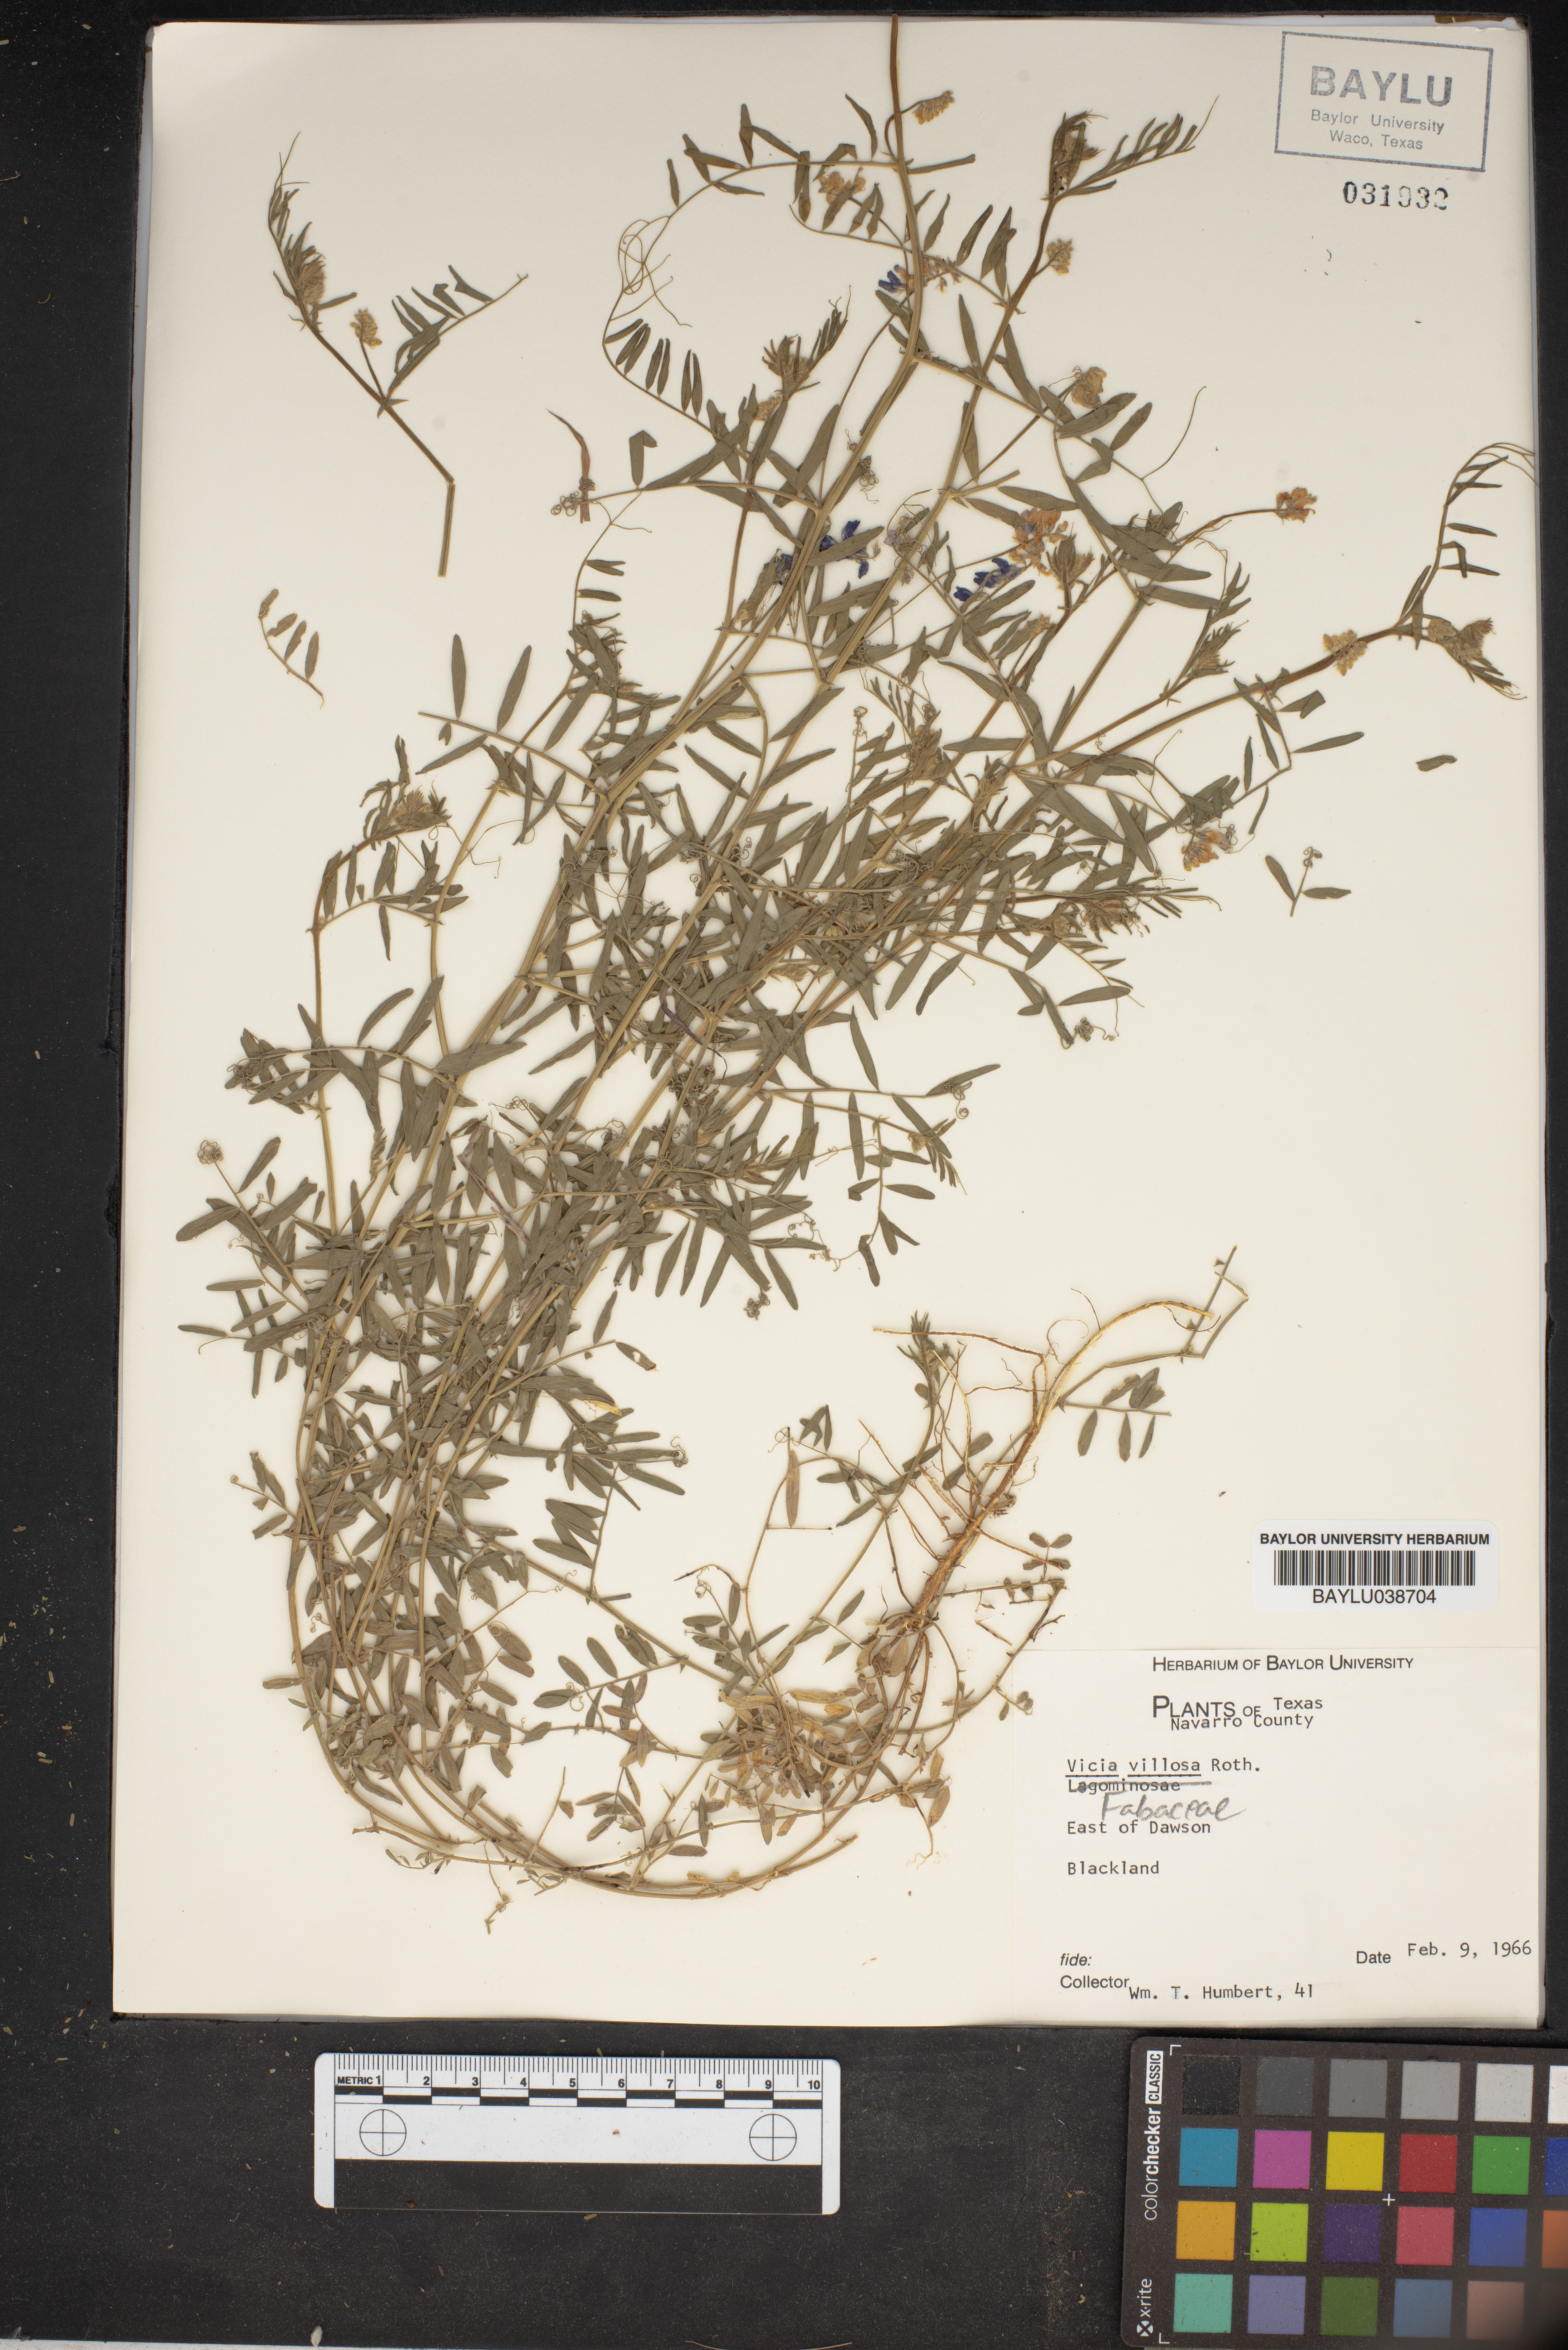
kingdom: Plantae
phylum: Tracheophyta
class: Magnoliopsida
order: Fabales
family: Fabaceae
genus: Vicia
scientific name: Vicia villosa
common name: Fodder vetch
